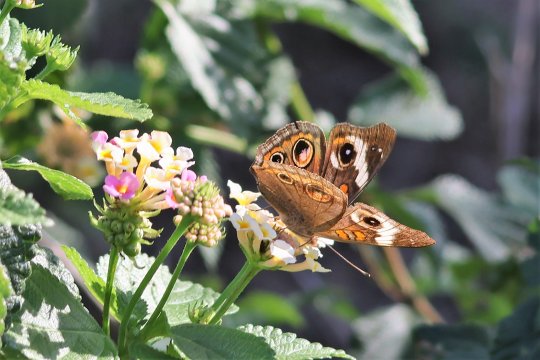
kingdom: Animalia
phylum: Arthropoda
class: Insecta
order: Lepidoptera
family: Nymphalidae
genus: Junonia
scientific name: Junonia coenia
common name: Common Buckeye
